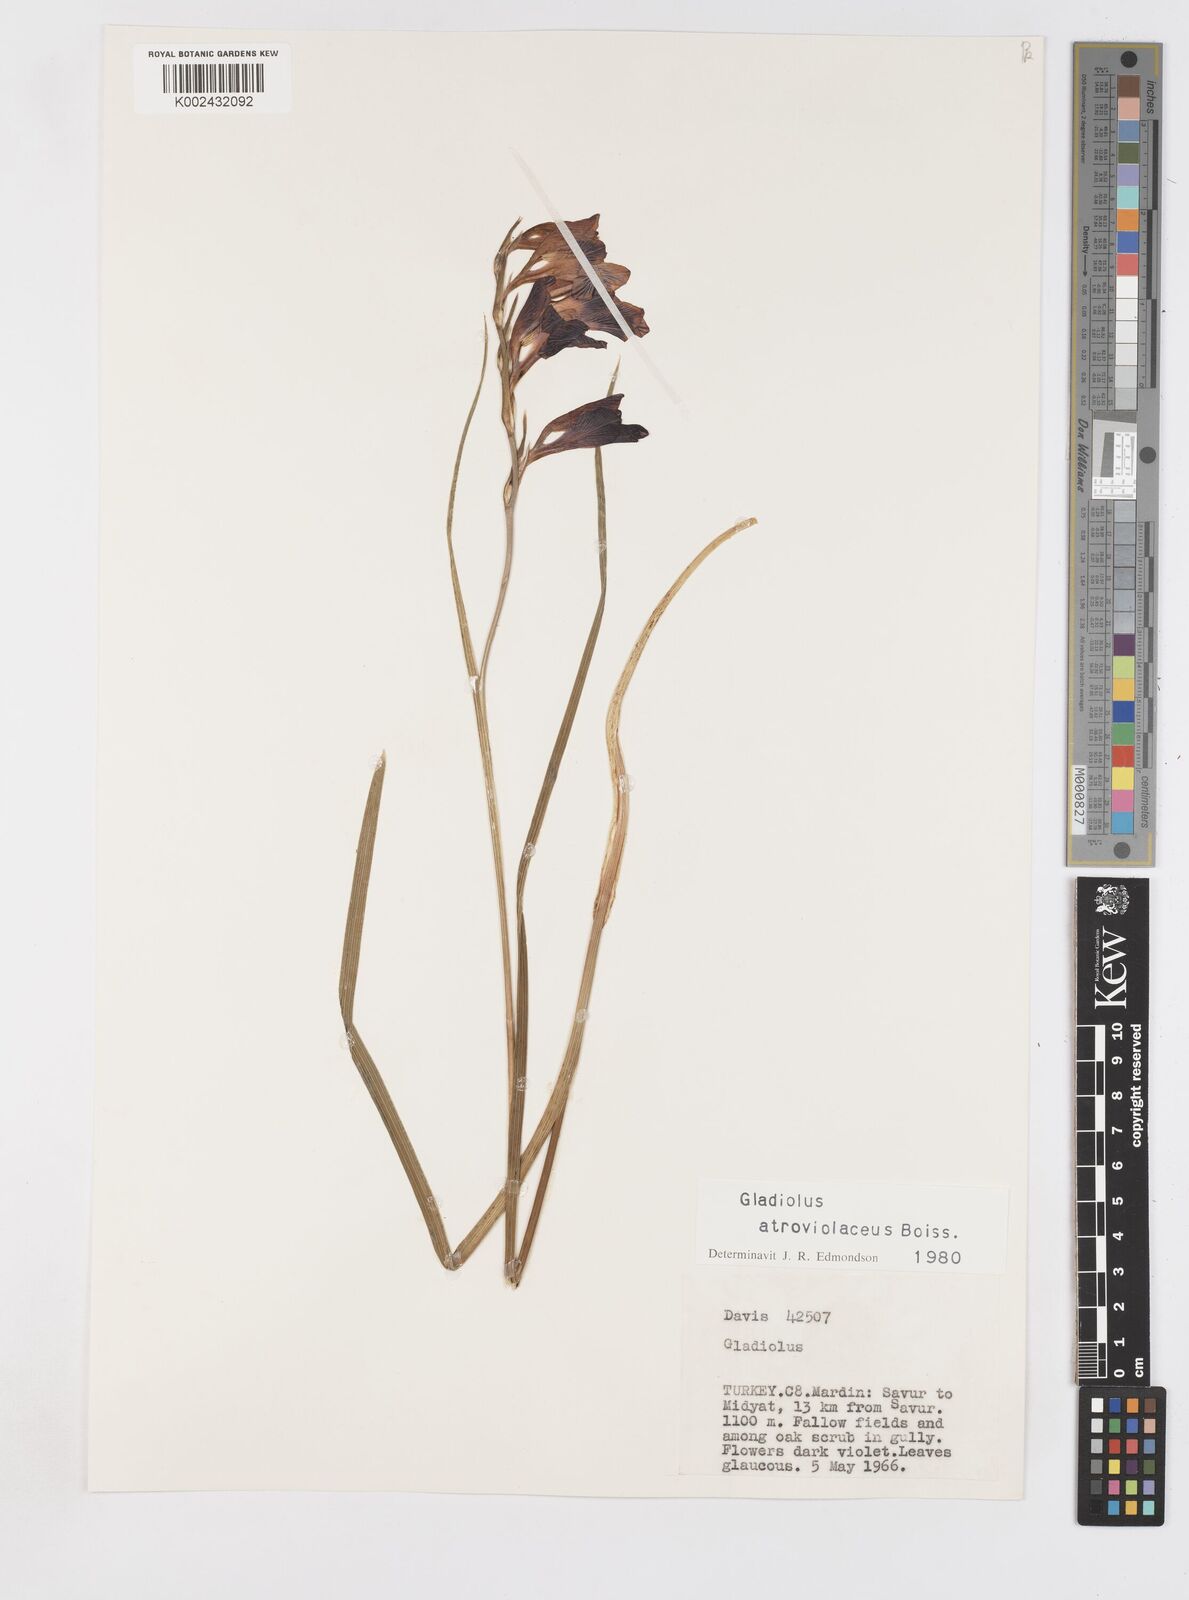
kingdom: Plantae
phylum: Tracheophyta
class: Liliopsida
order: Asparagales
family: Iridaceae
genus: Gladiolus
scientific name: Gladiolus atroviolaceus
